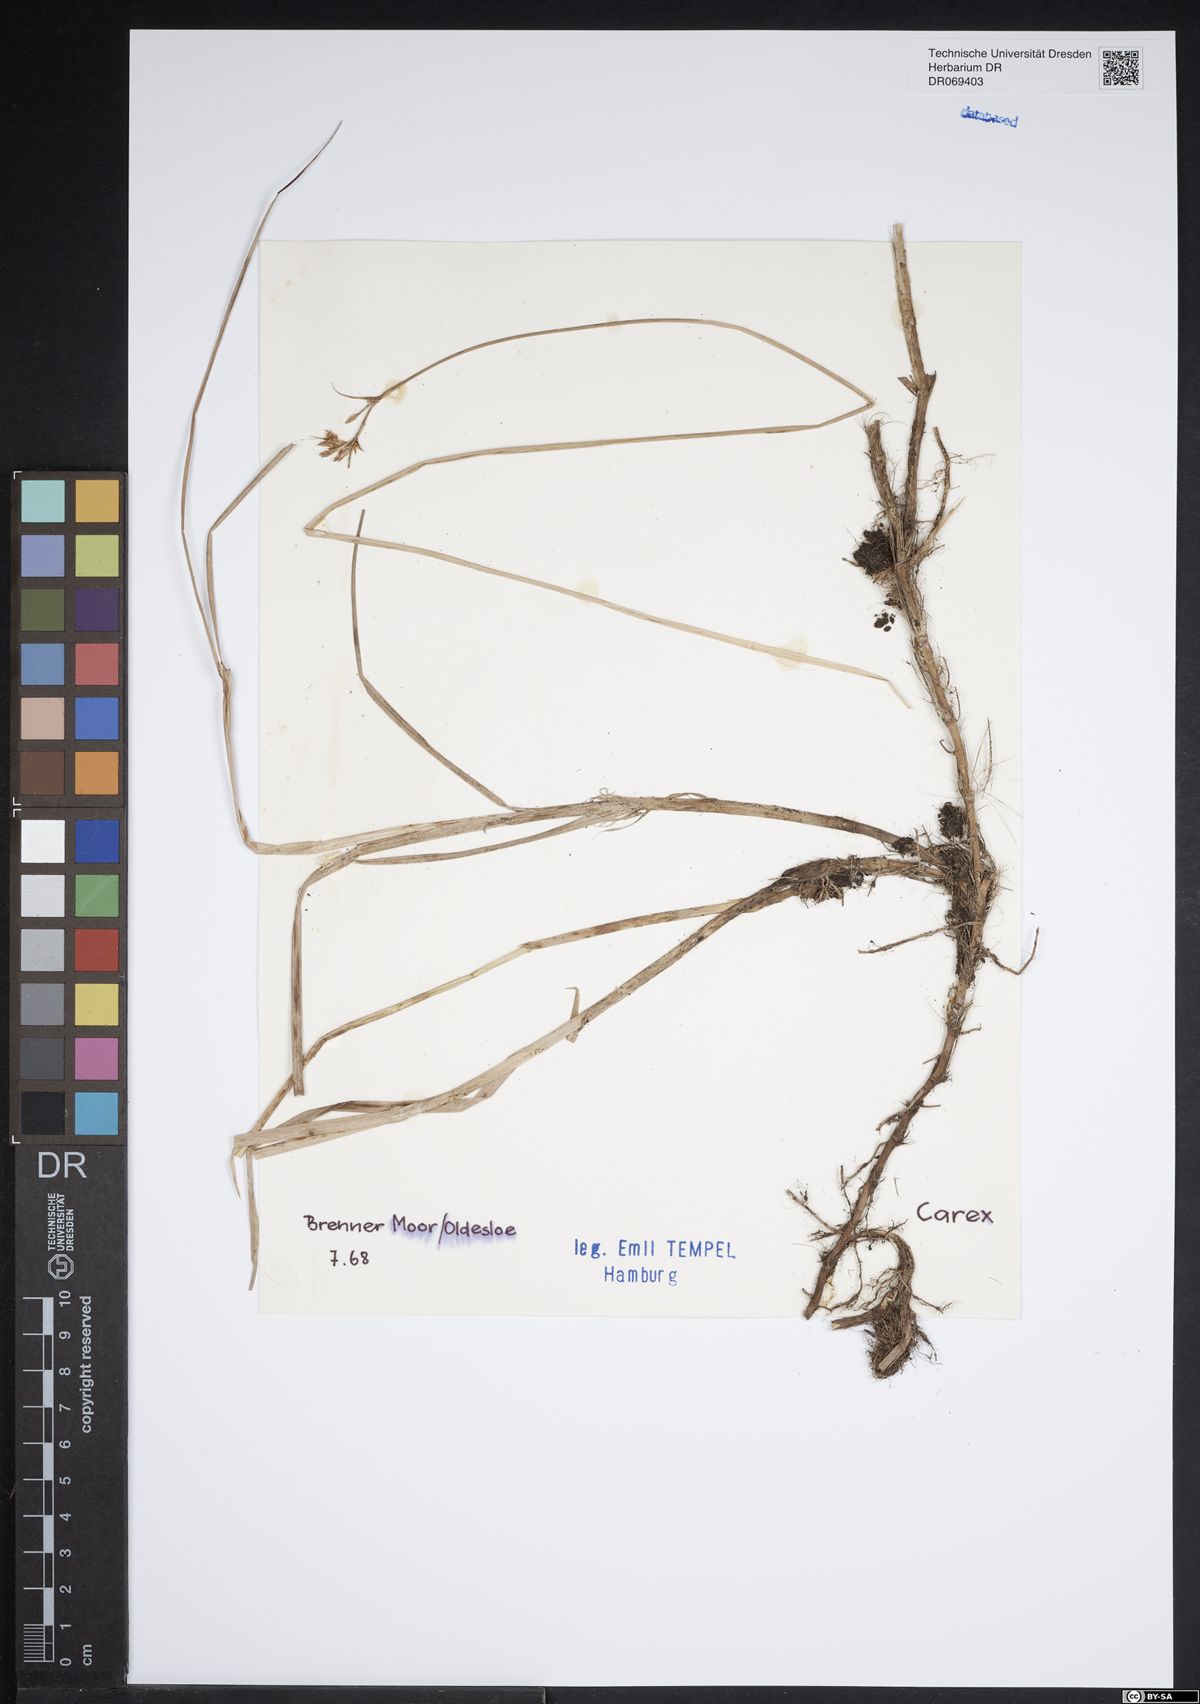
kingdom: Plantae
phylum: Tracheophyta
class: Liliopsida
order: Poales
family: Cyperaceae
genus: Carex
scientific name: Carex
